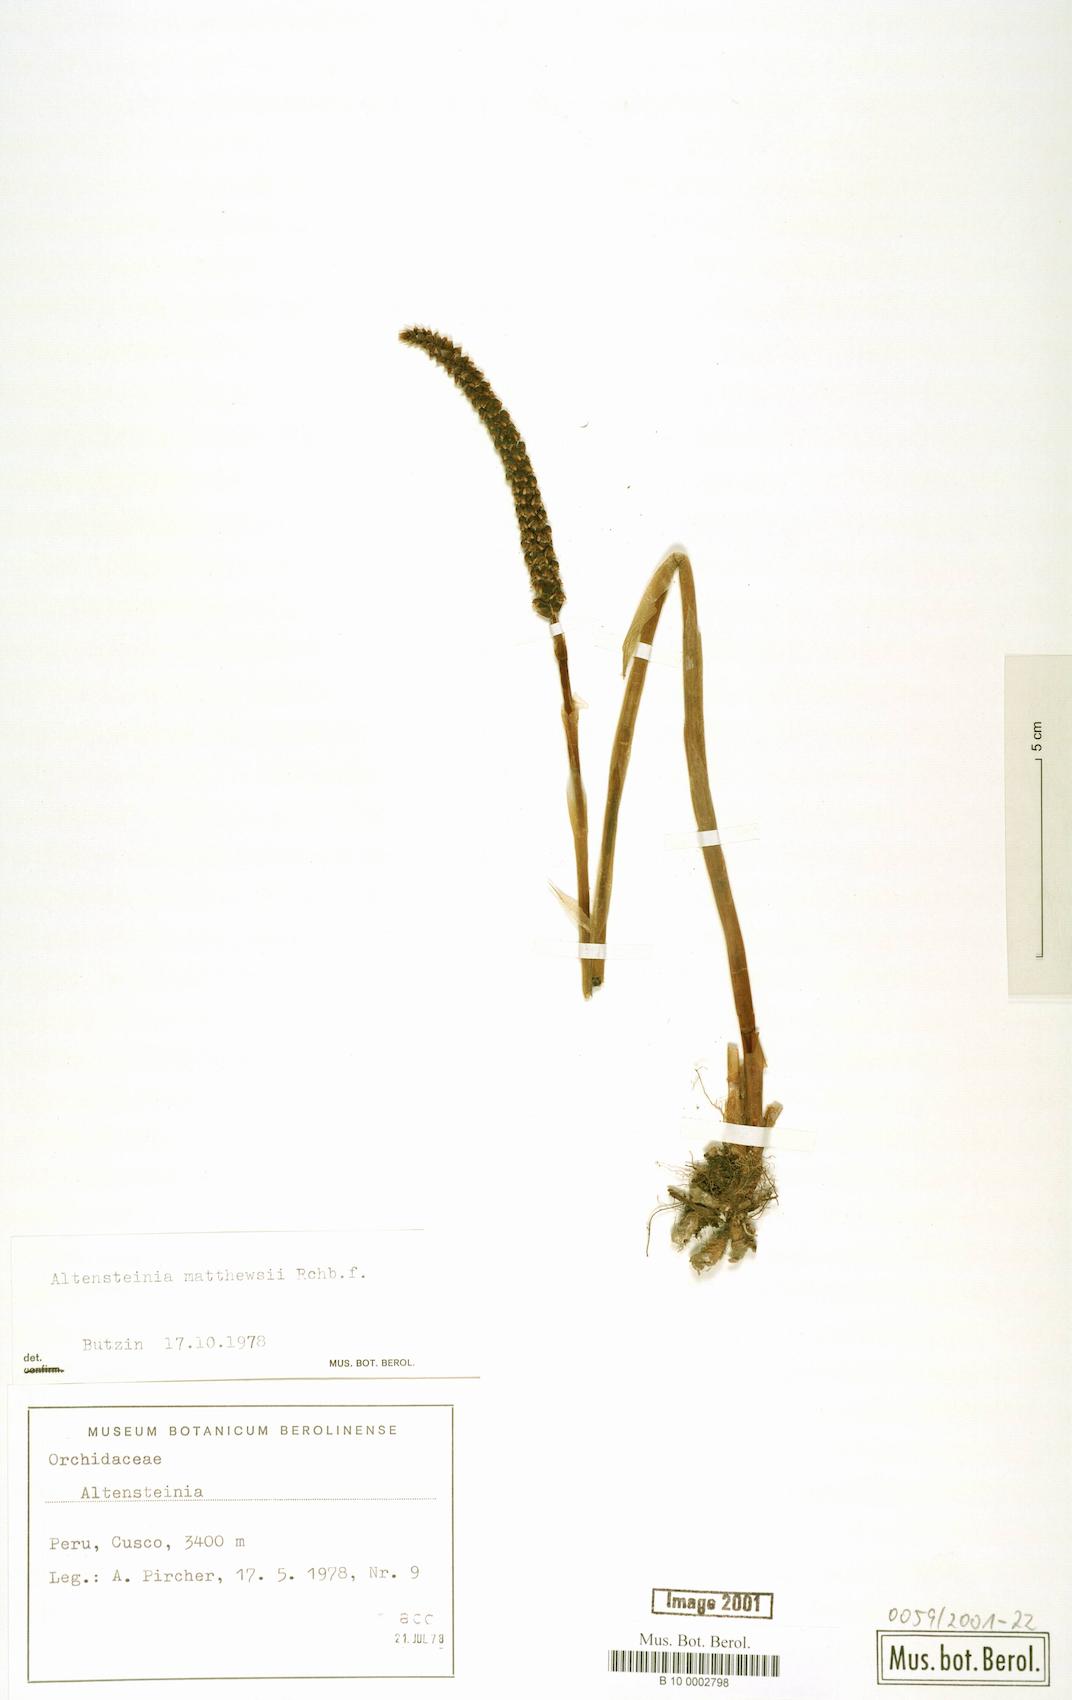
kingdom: Plantae
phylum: Tracheophyta
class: Liliopsida
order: Asparagales
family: Orchidaceae
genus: Aa
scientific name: Aa matthewsii
